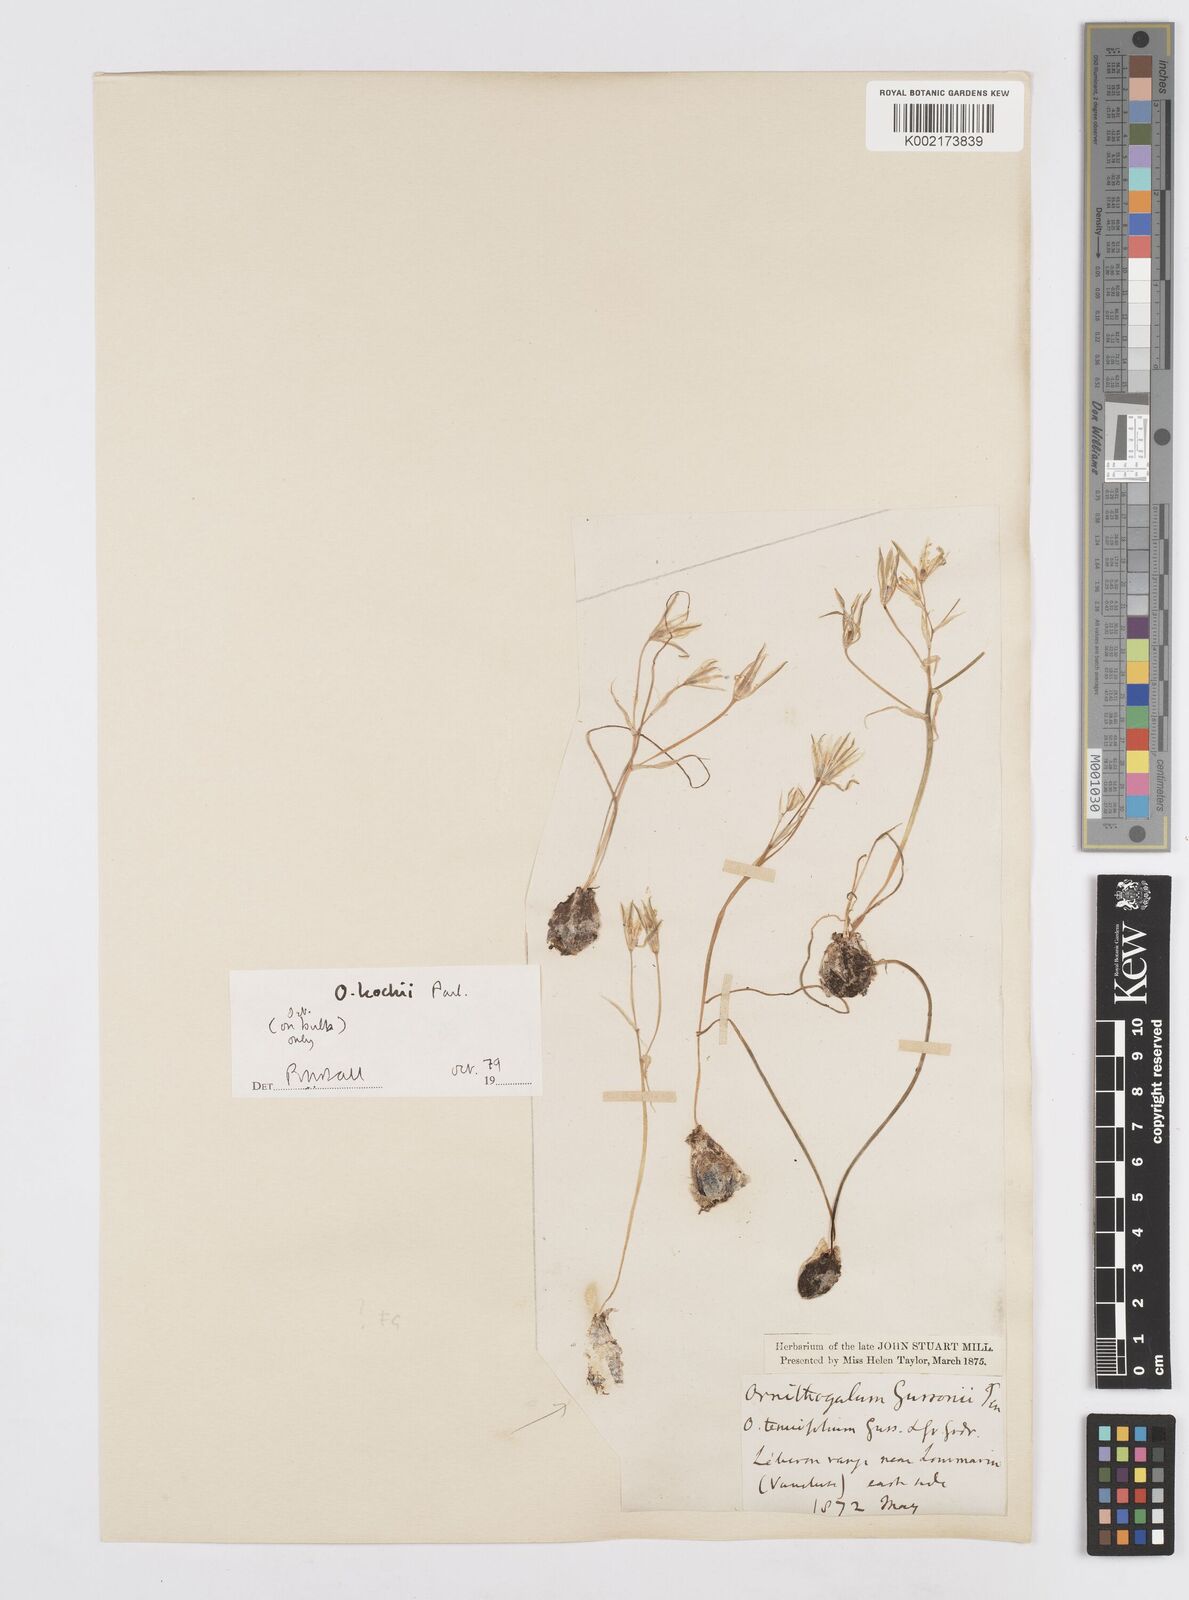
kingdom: Plantae
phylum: Tracheophyta
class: Liliopsida
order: Asparagales
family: Asparagaceae
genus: Ornithogalum
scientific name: Ornithogalum orthophyllum
